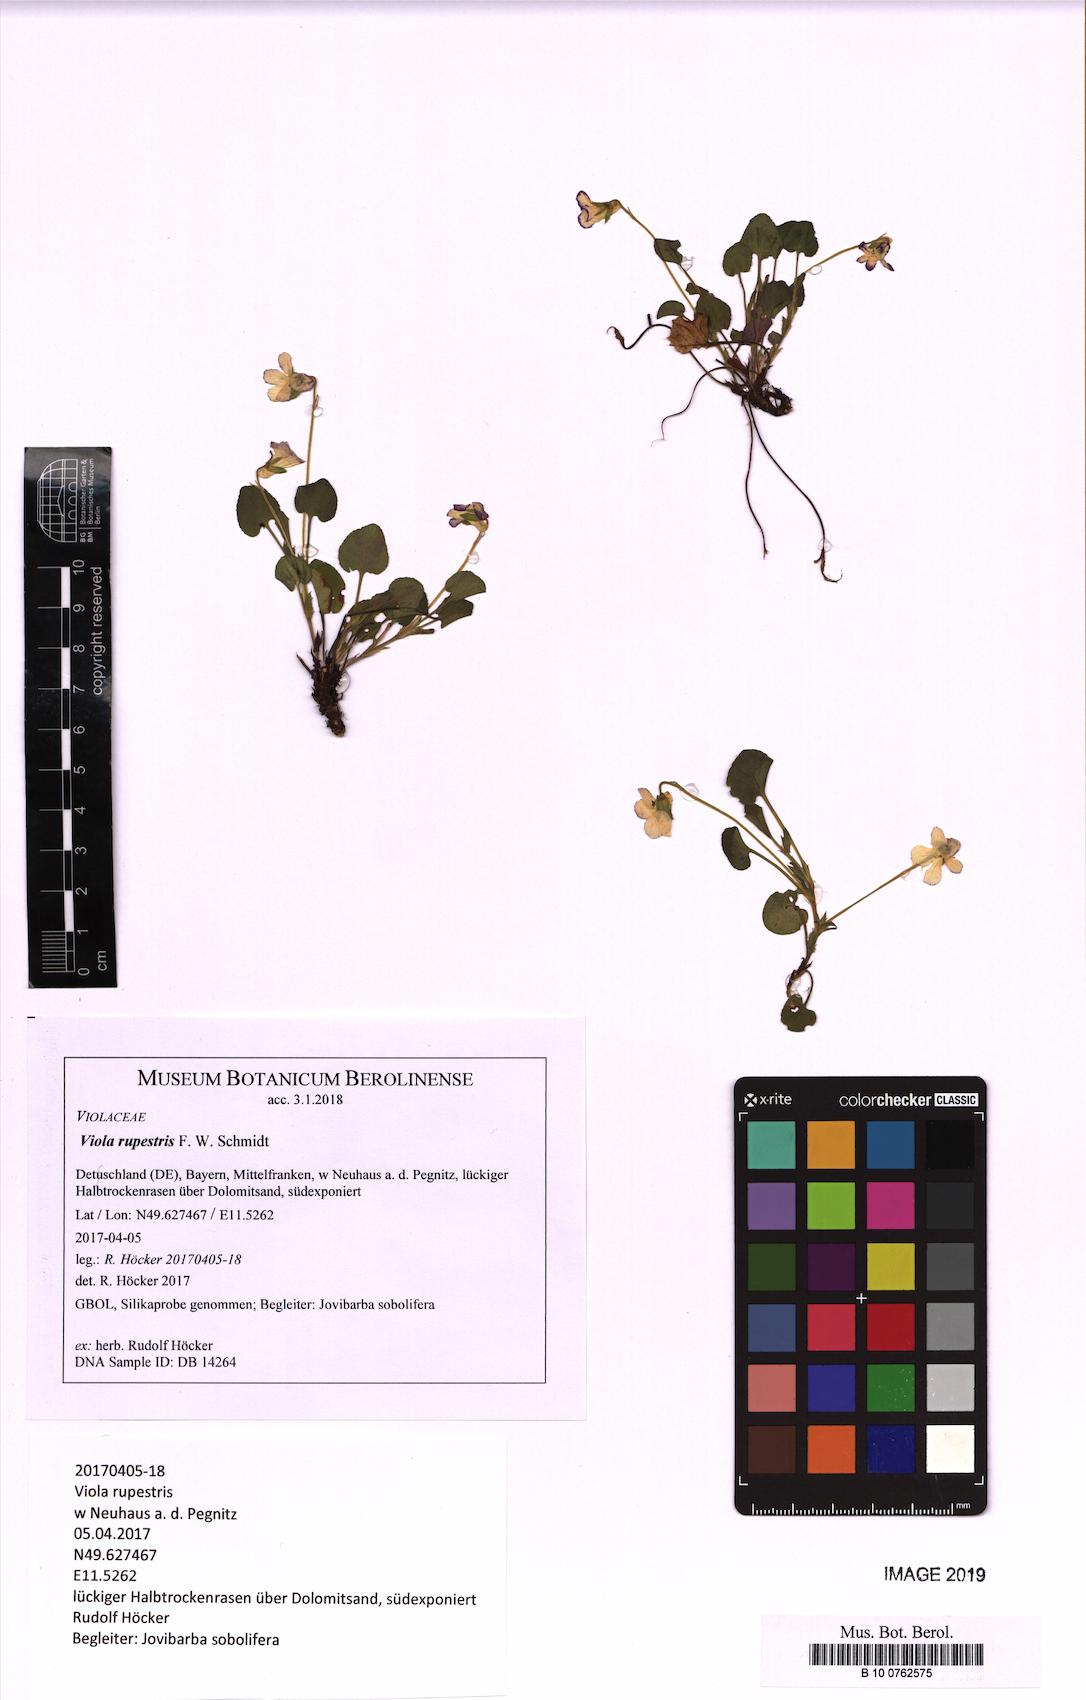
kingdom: Plantae
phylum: Tracheophyta
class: Magnoliopsida
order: Malpighiales
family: Violaceae
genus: Viola
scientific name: Viola rupestris
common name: Teesdale violet
